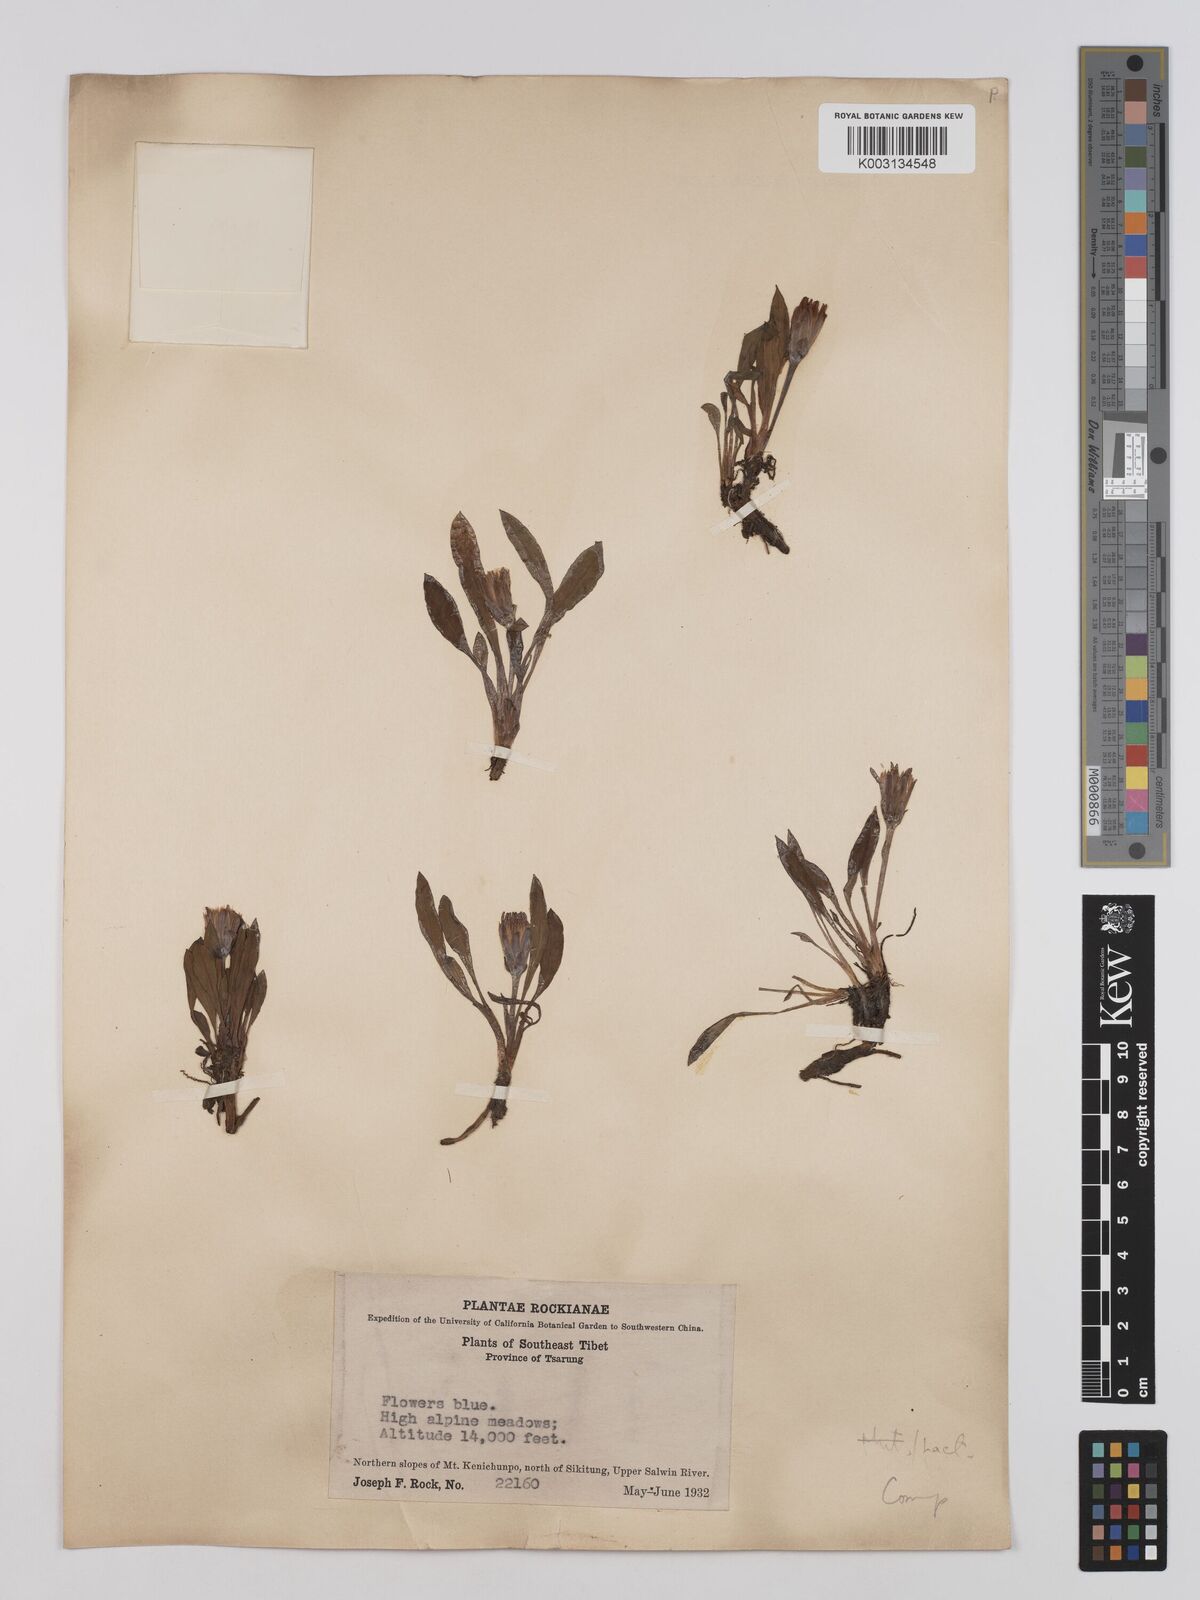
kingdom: Plantae
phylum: Tracheophyta
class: Magnoliopsida
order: Asterales
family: Asteraceae
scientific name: Asteraceae
